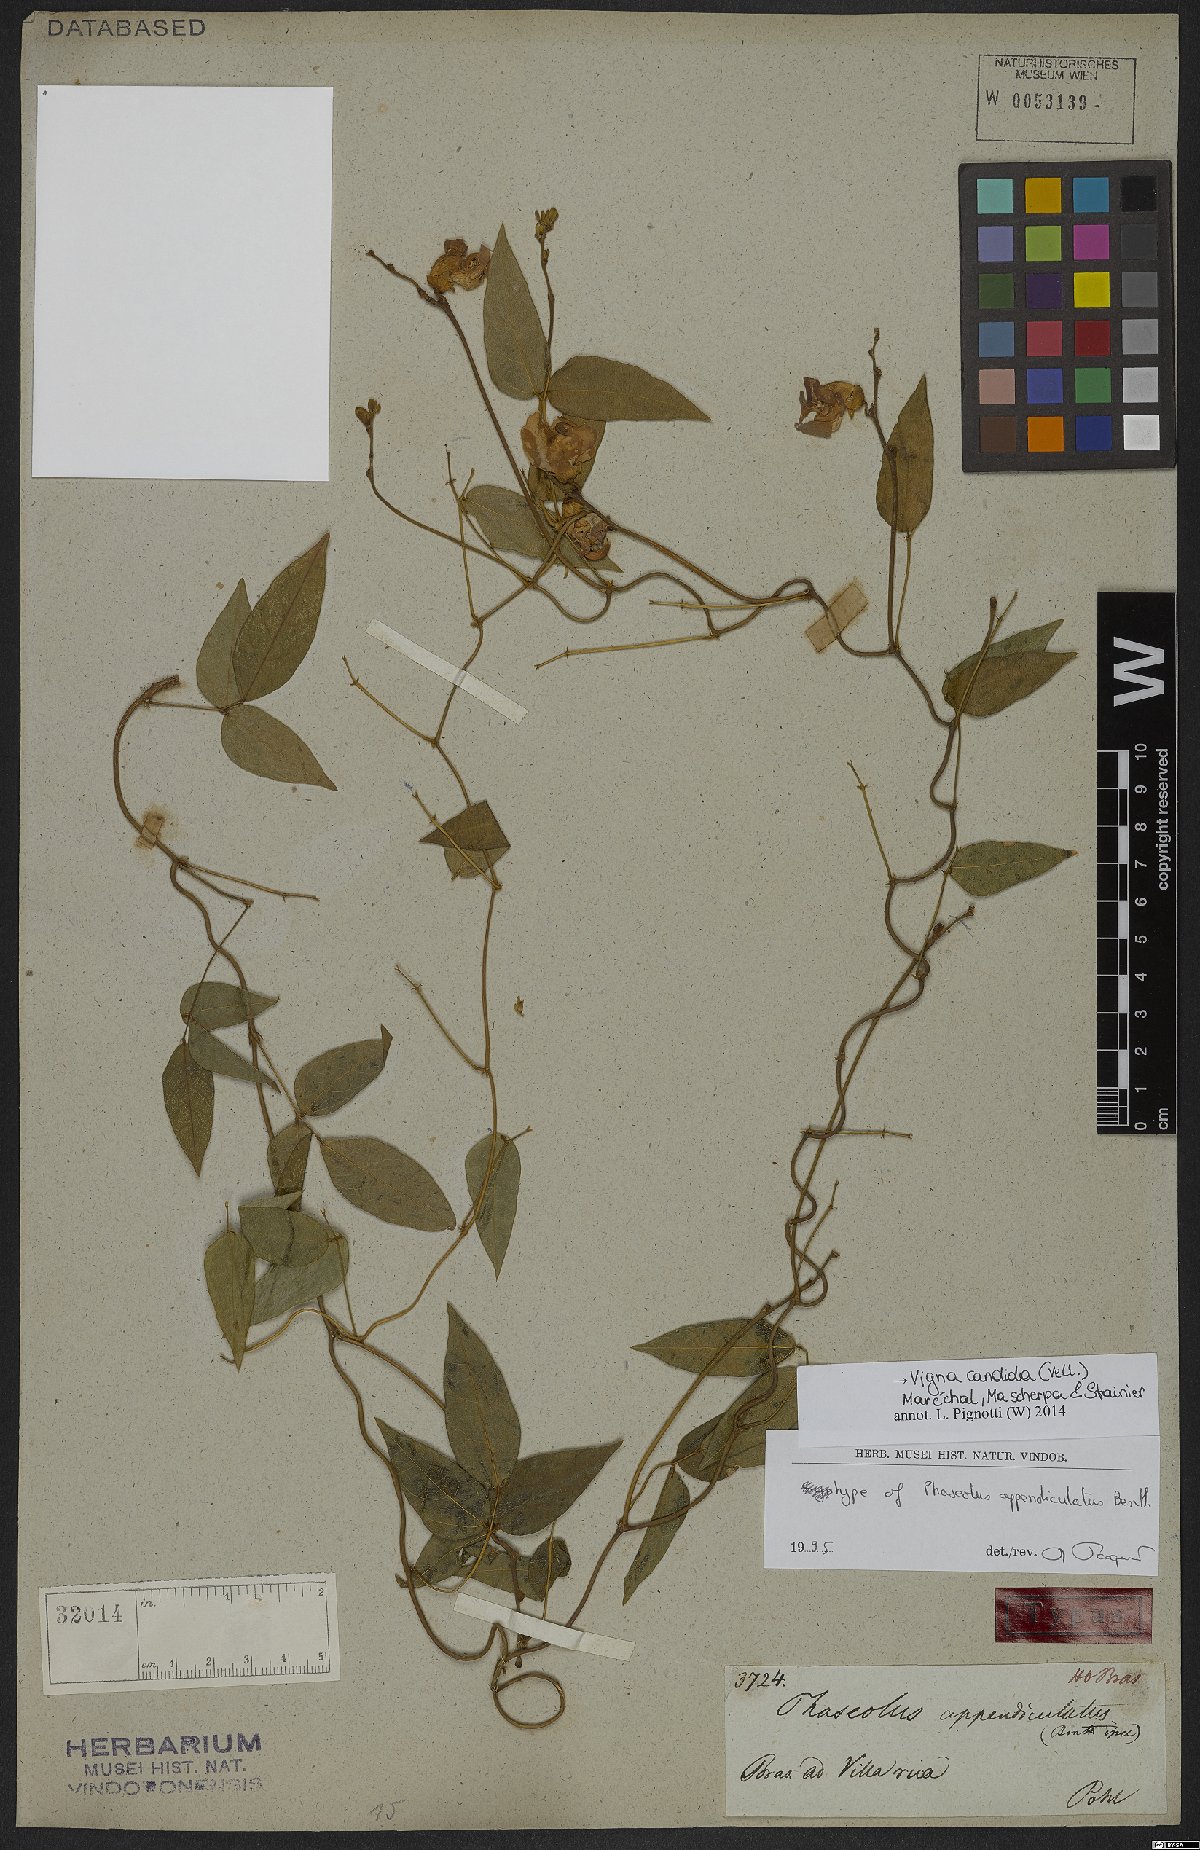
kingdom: Plantae
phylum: Tracheophyta
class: Magnoliopsida
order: Fabales
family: Fabaceae
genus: Condylostylis
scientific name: Condylostylis candida
